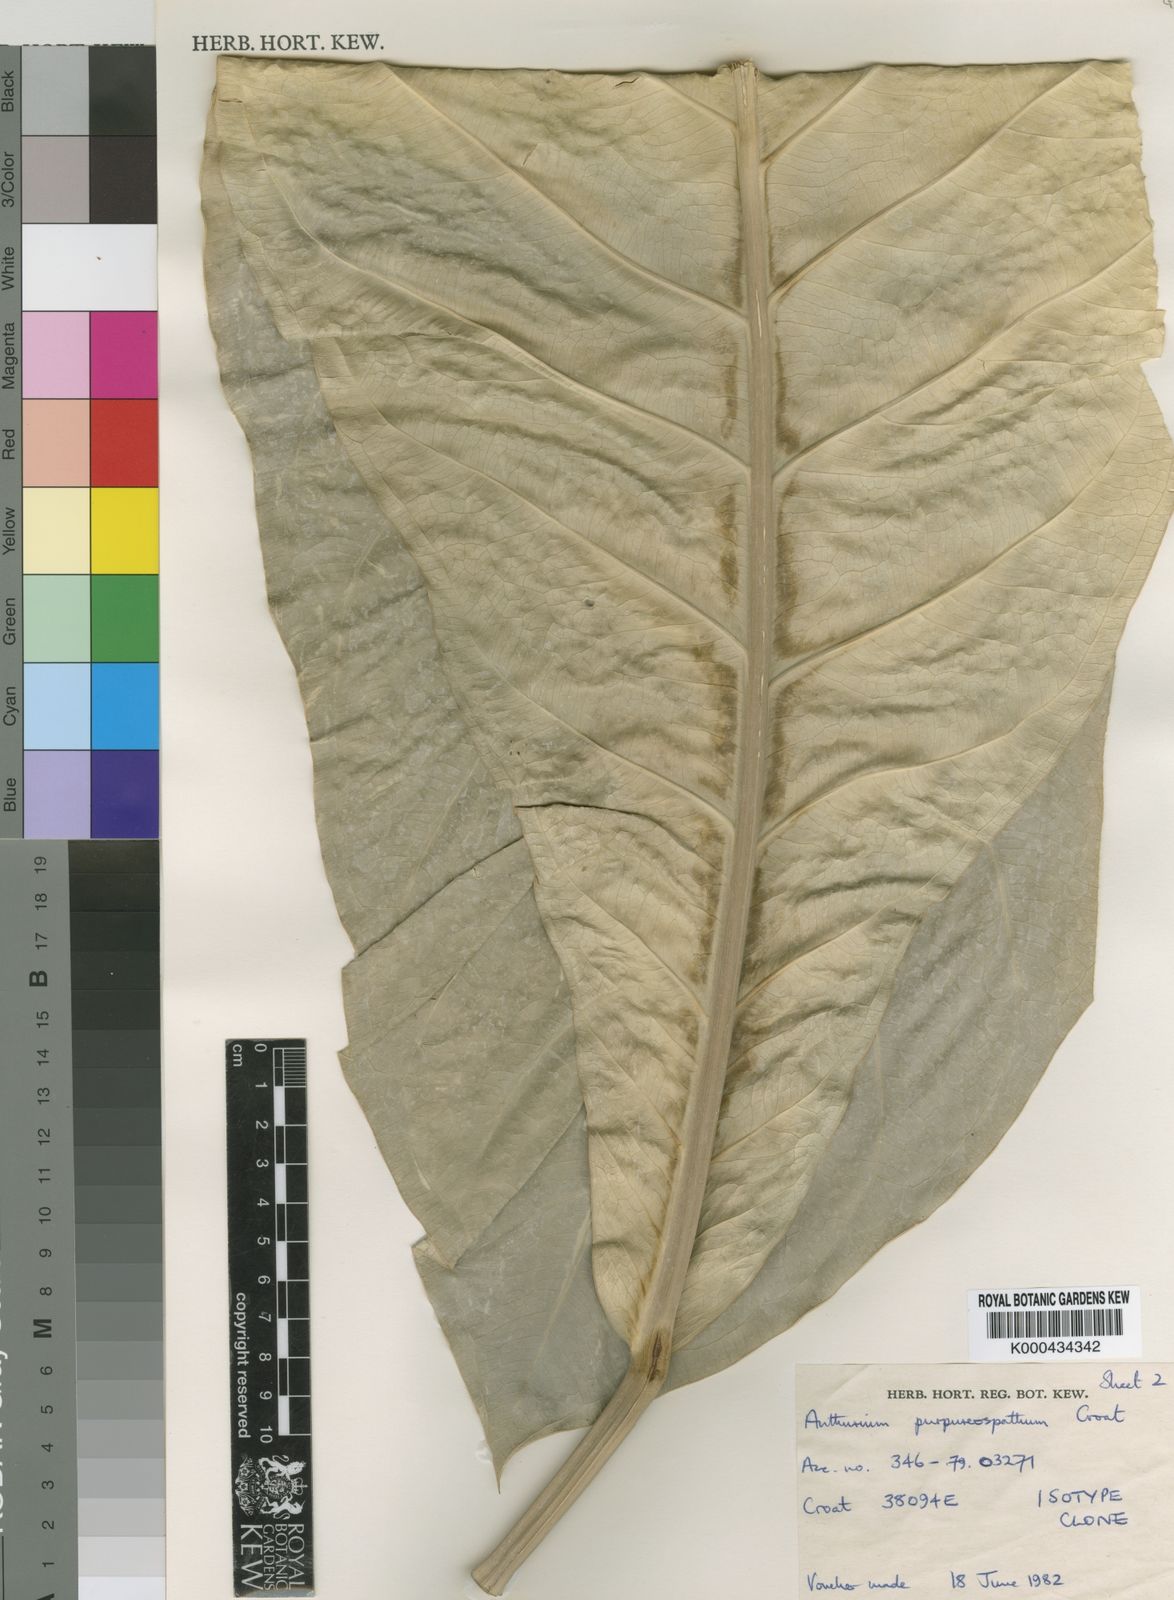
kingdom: Plantae
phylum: Tracheophyta
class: Liliopsida
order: Alismatales
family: Araceae
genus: Anthurium
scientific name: Anthurium purpureospathum
